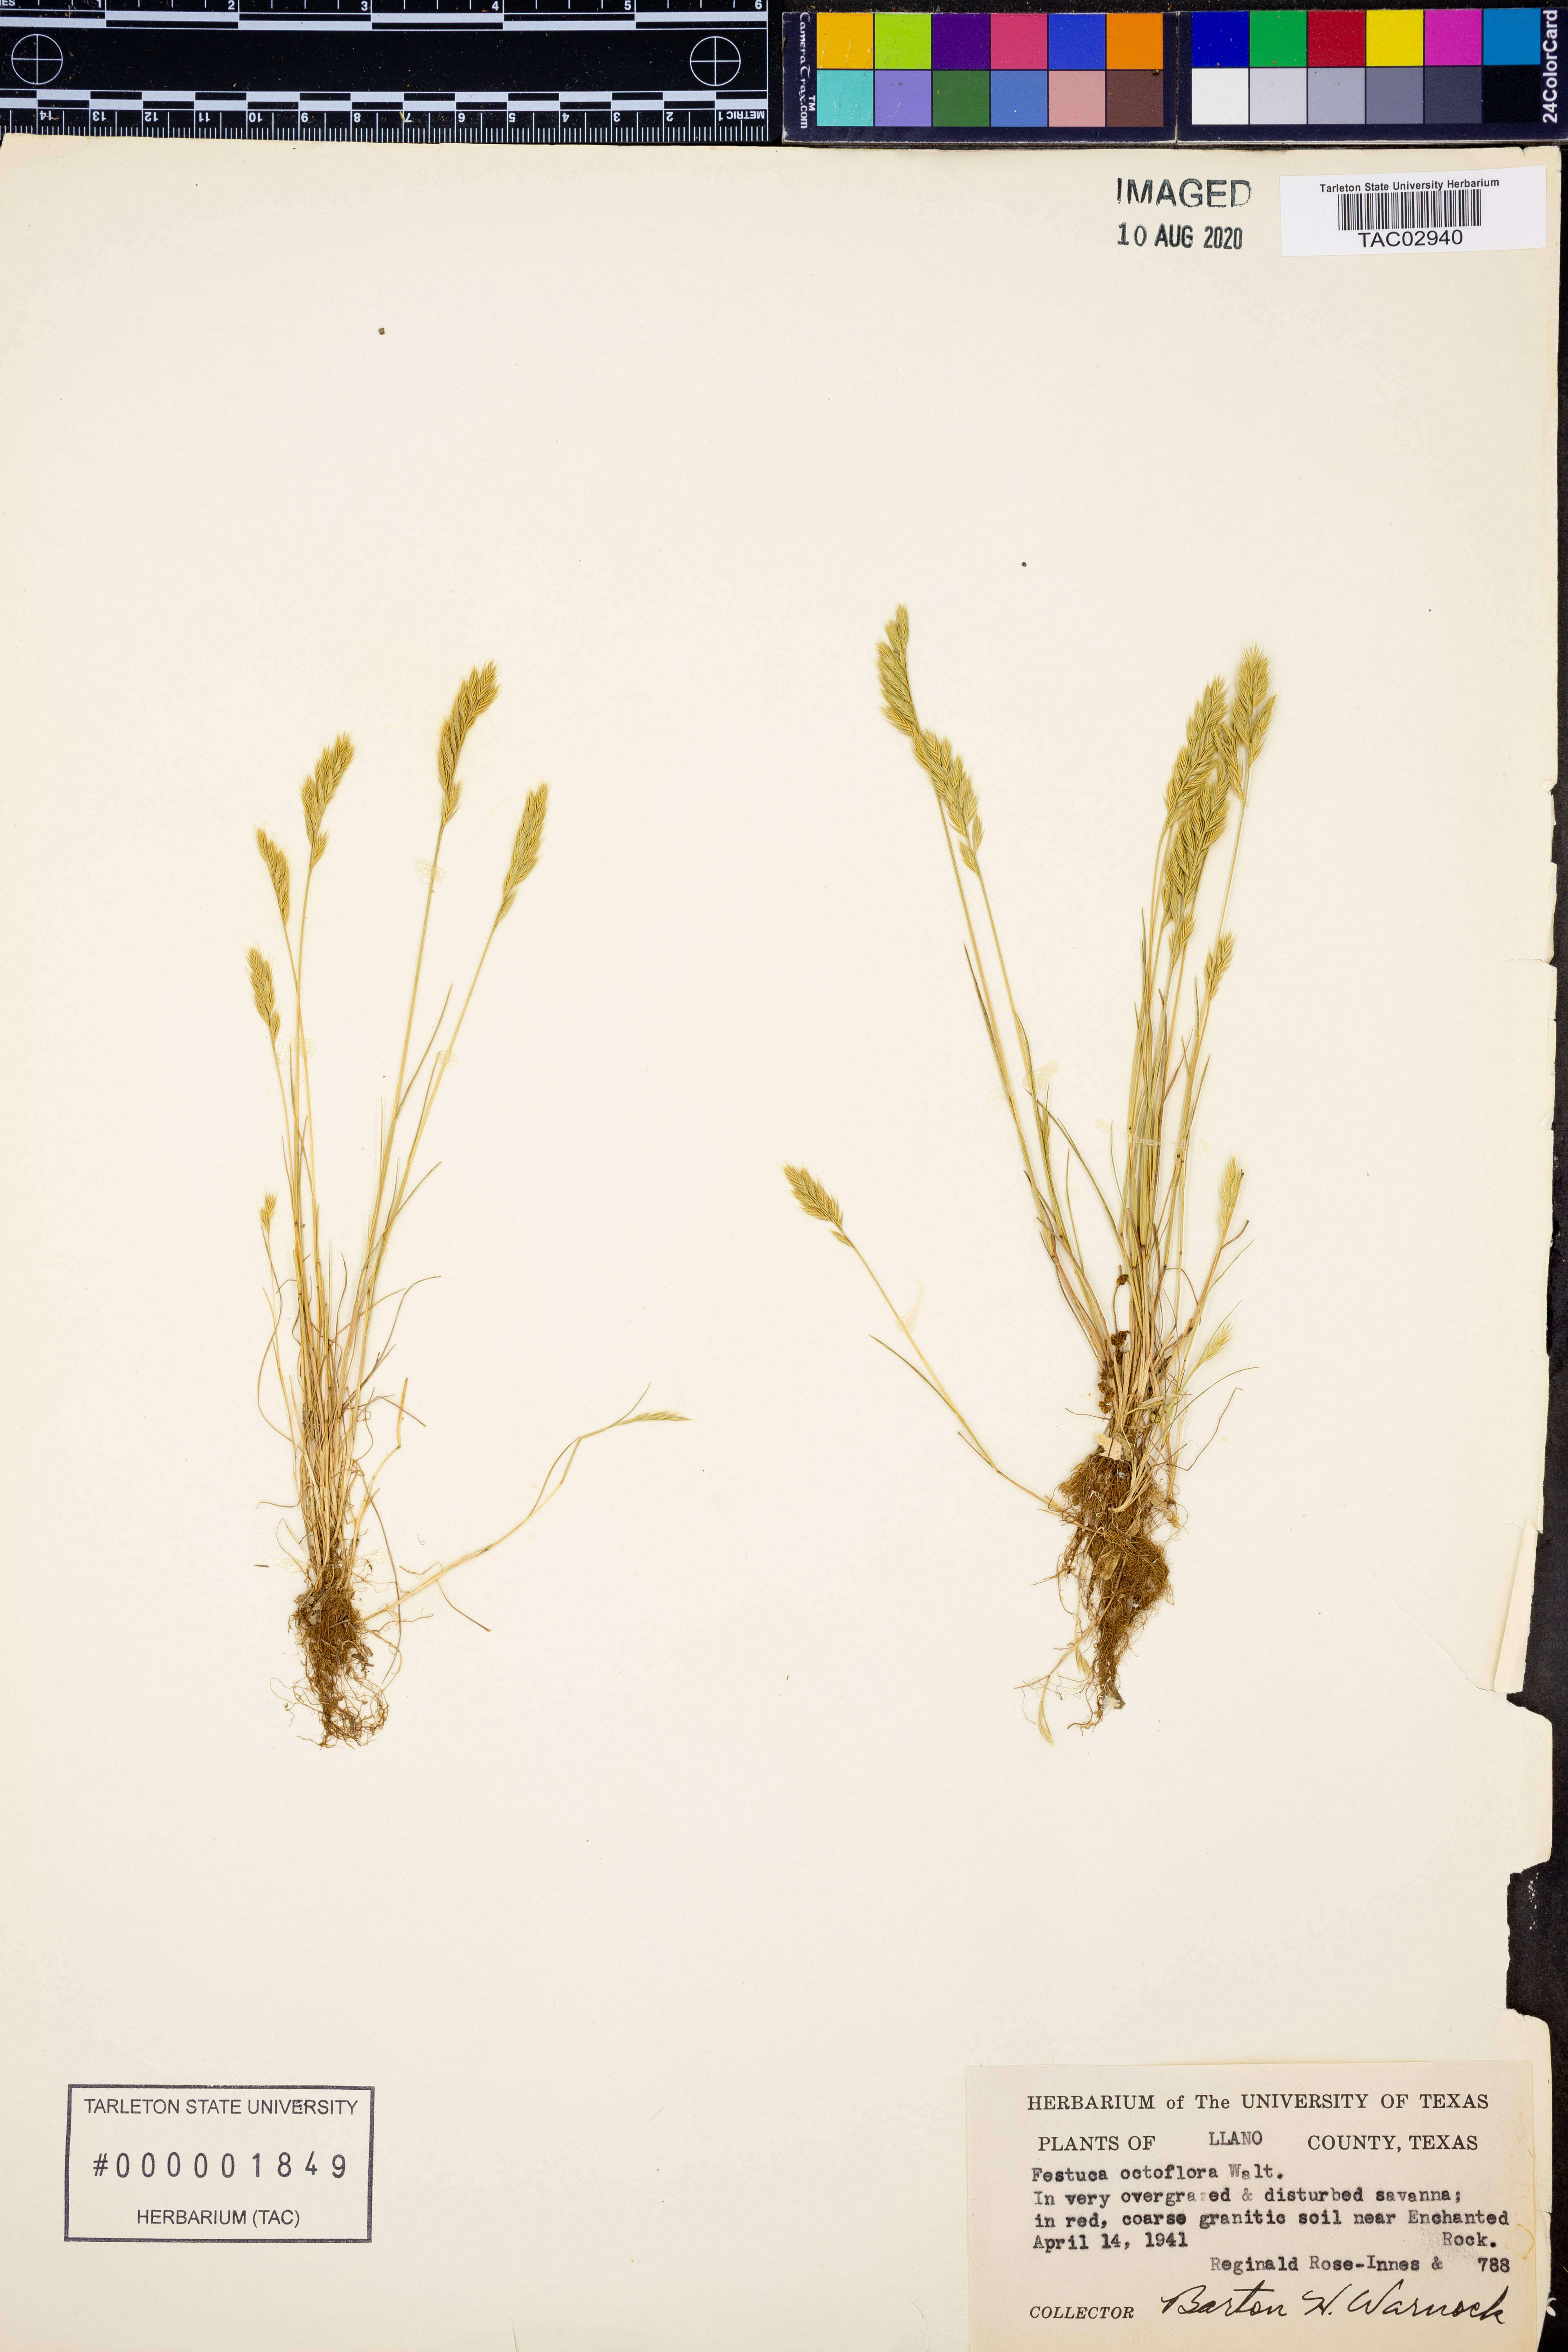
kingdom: Plantae
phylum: Tracheophyta
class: Liliopsida
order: Poales
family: Poaceae
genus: Festuca
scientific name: Festuca octoflora
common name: Sixweeks grass
